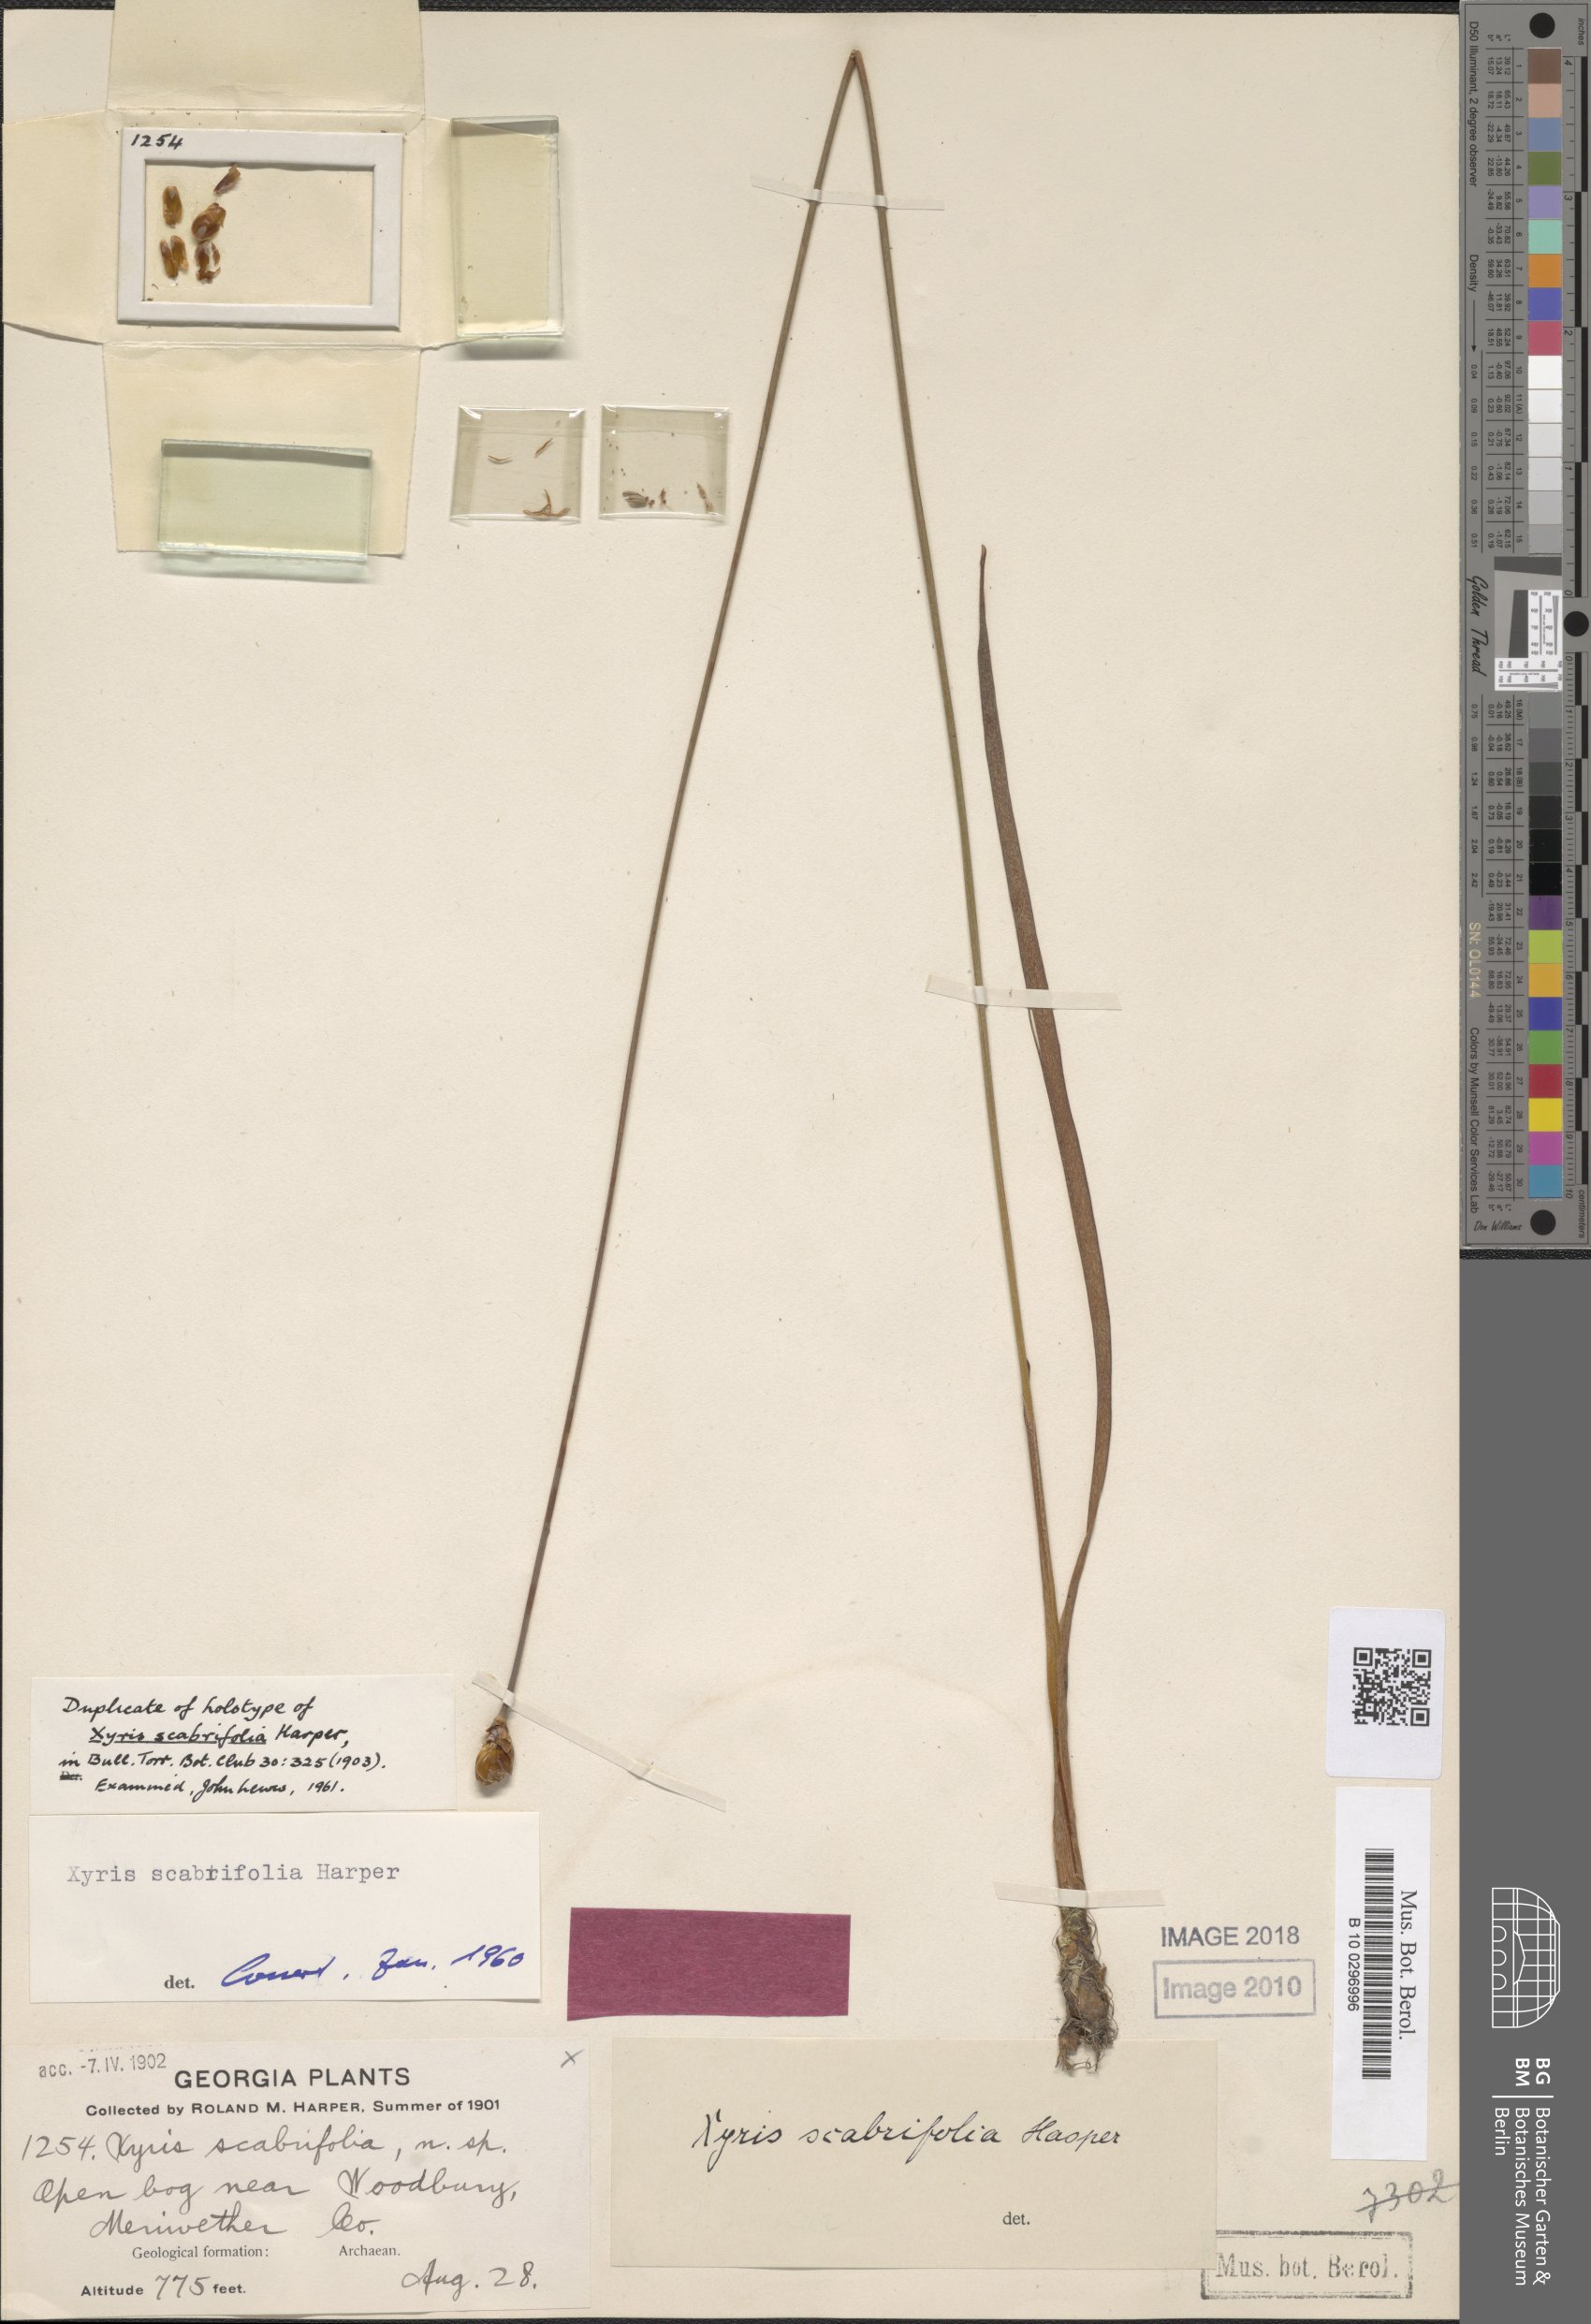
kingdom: Plantae
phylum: Tracheophyta
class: Liliopsida
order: Poales
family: Xyridaceae
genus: Xyris
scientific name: Xyris scabrifolia
